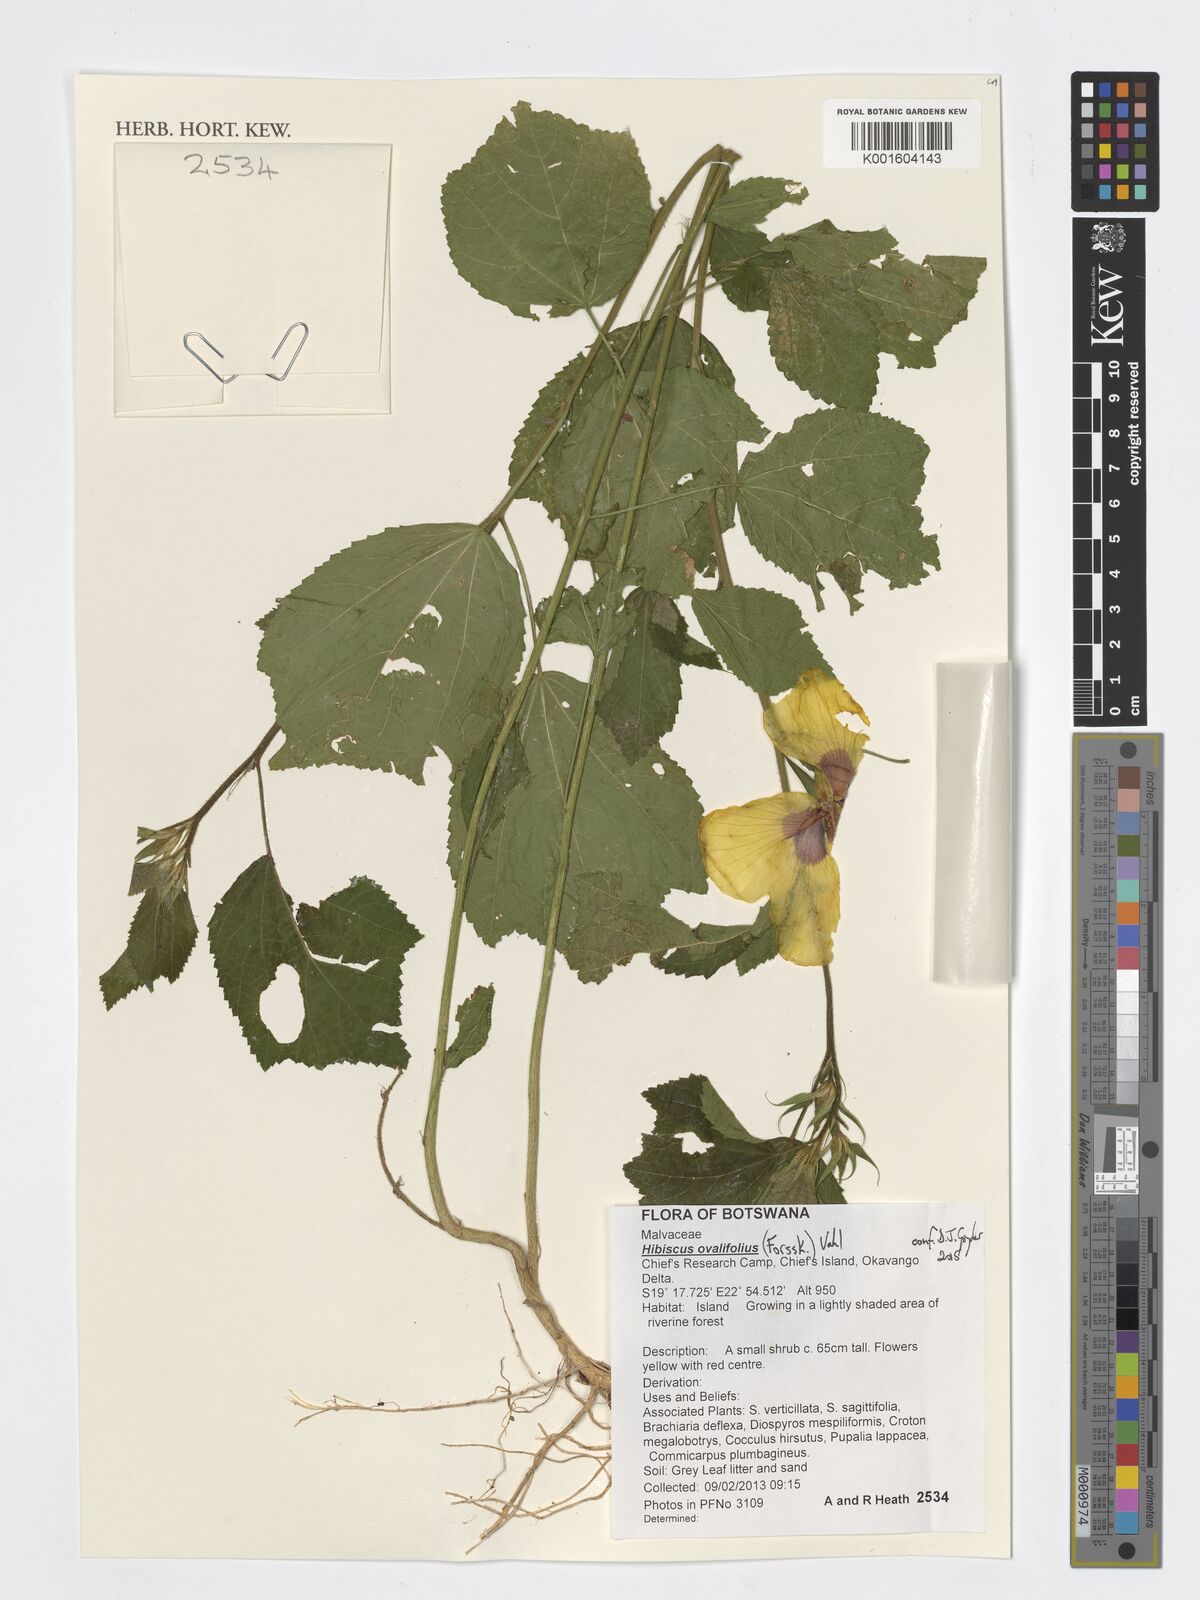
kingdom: Plantae
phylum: Tracheophyta
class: Magnoliopsida
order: Malvales
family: Malvaceae
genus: Hibiscus
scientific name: Hibiscus ovalifolius
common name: Rosemallow
